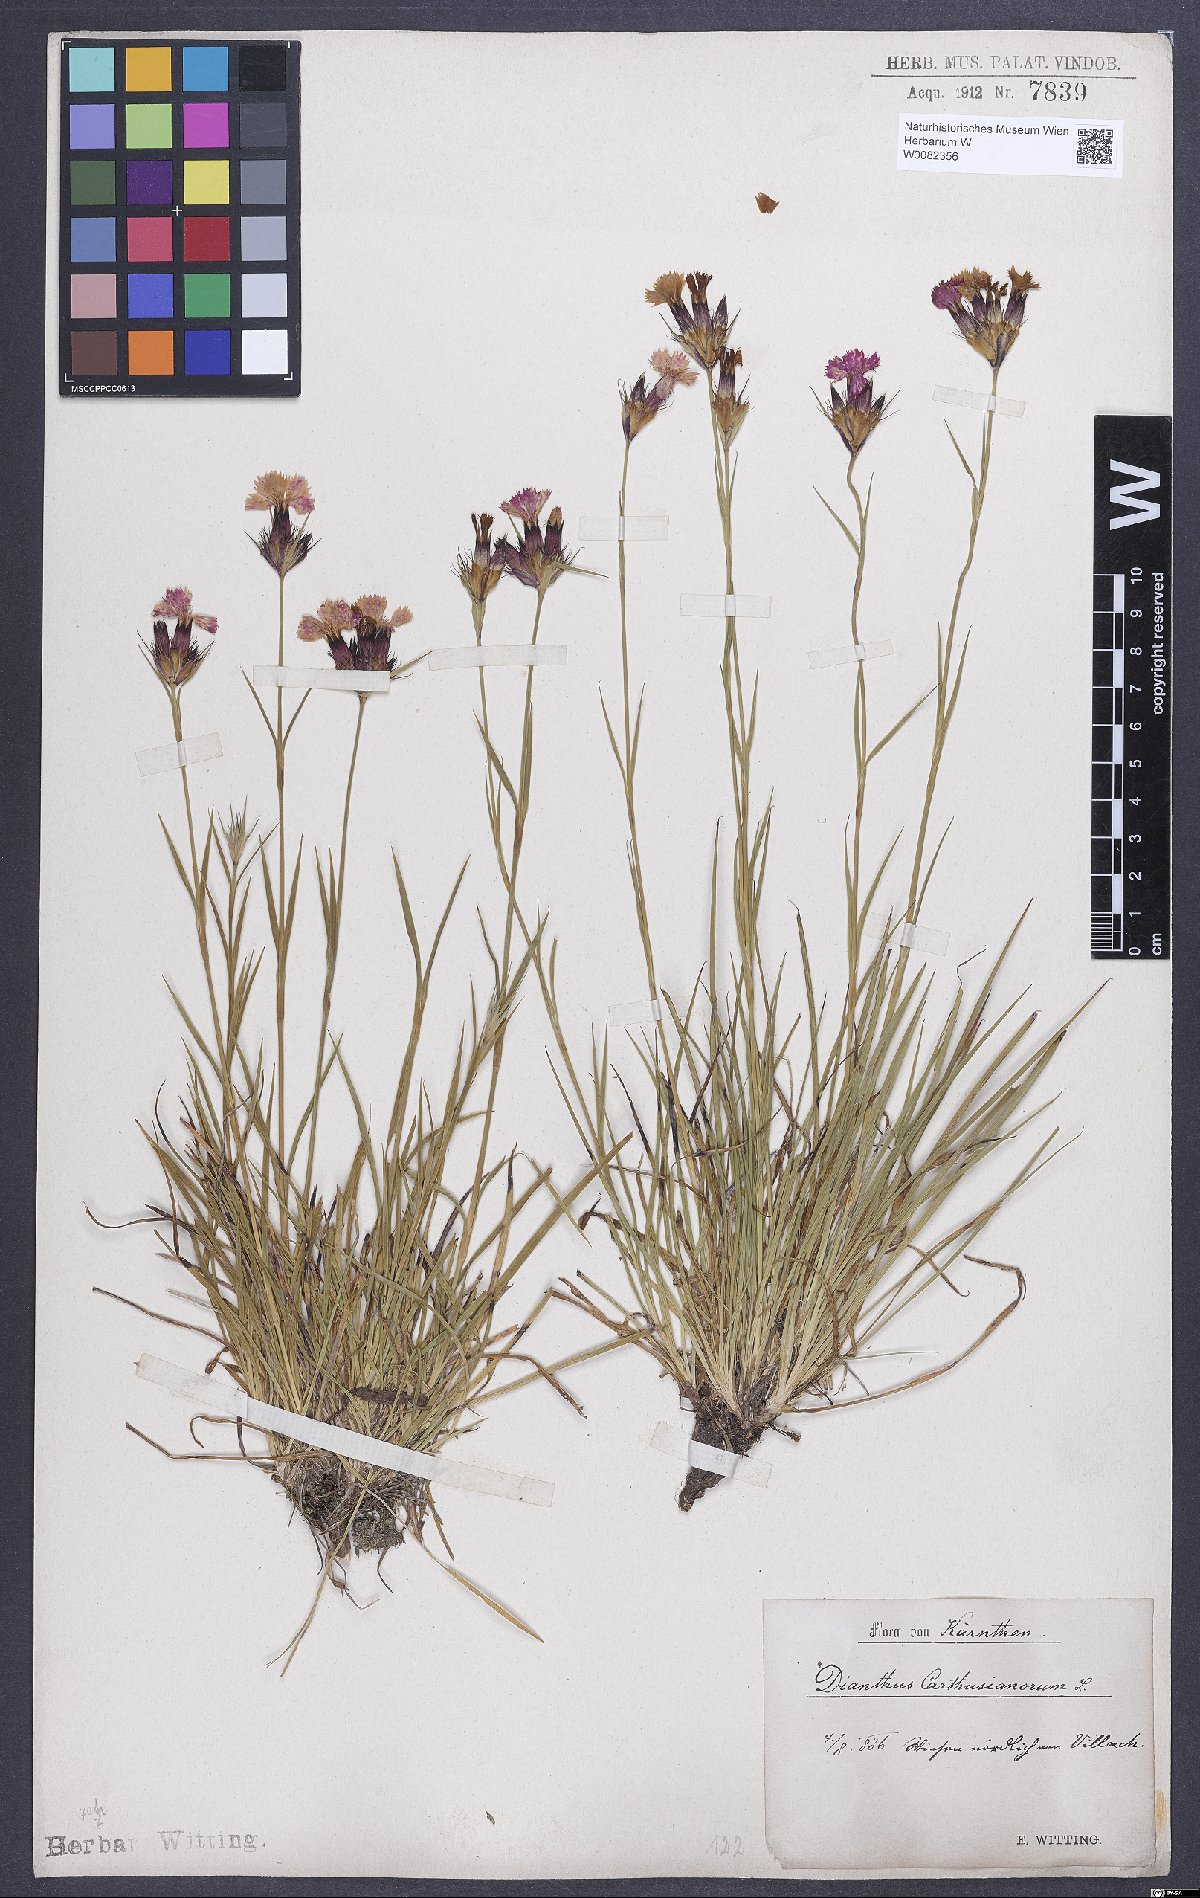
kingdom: Plantae
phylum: Tracheophyta
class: Magnoliopsida
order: Caryophyllales
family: Caryophyllaceae
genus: Dianthus
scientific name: Dianthus carthusianorum
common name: Carthusian pink
